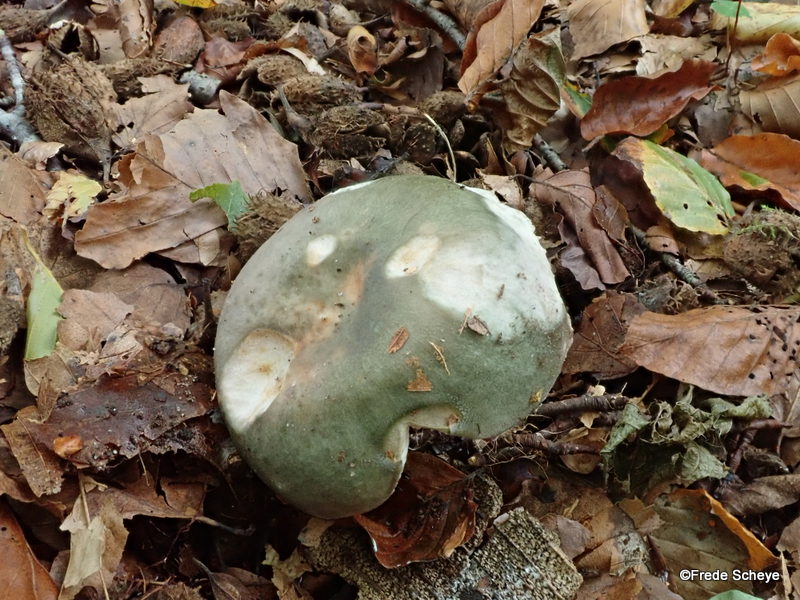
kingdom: Fungi
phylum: Basidiomycota
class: Agaricomycetes
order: Russulales
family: Russulaceae
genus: Russula
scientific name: Russula heterophylla
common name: gaffelbladet skørhat
